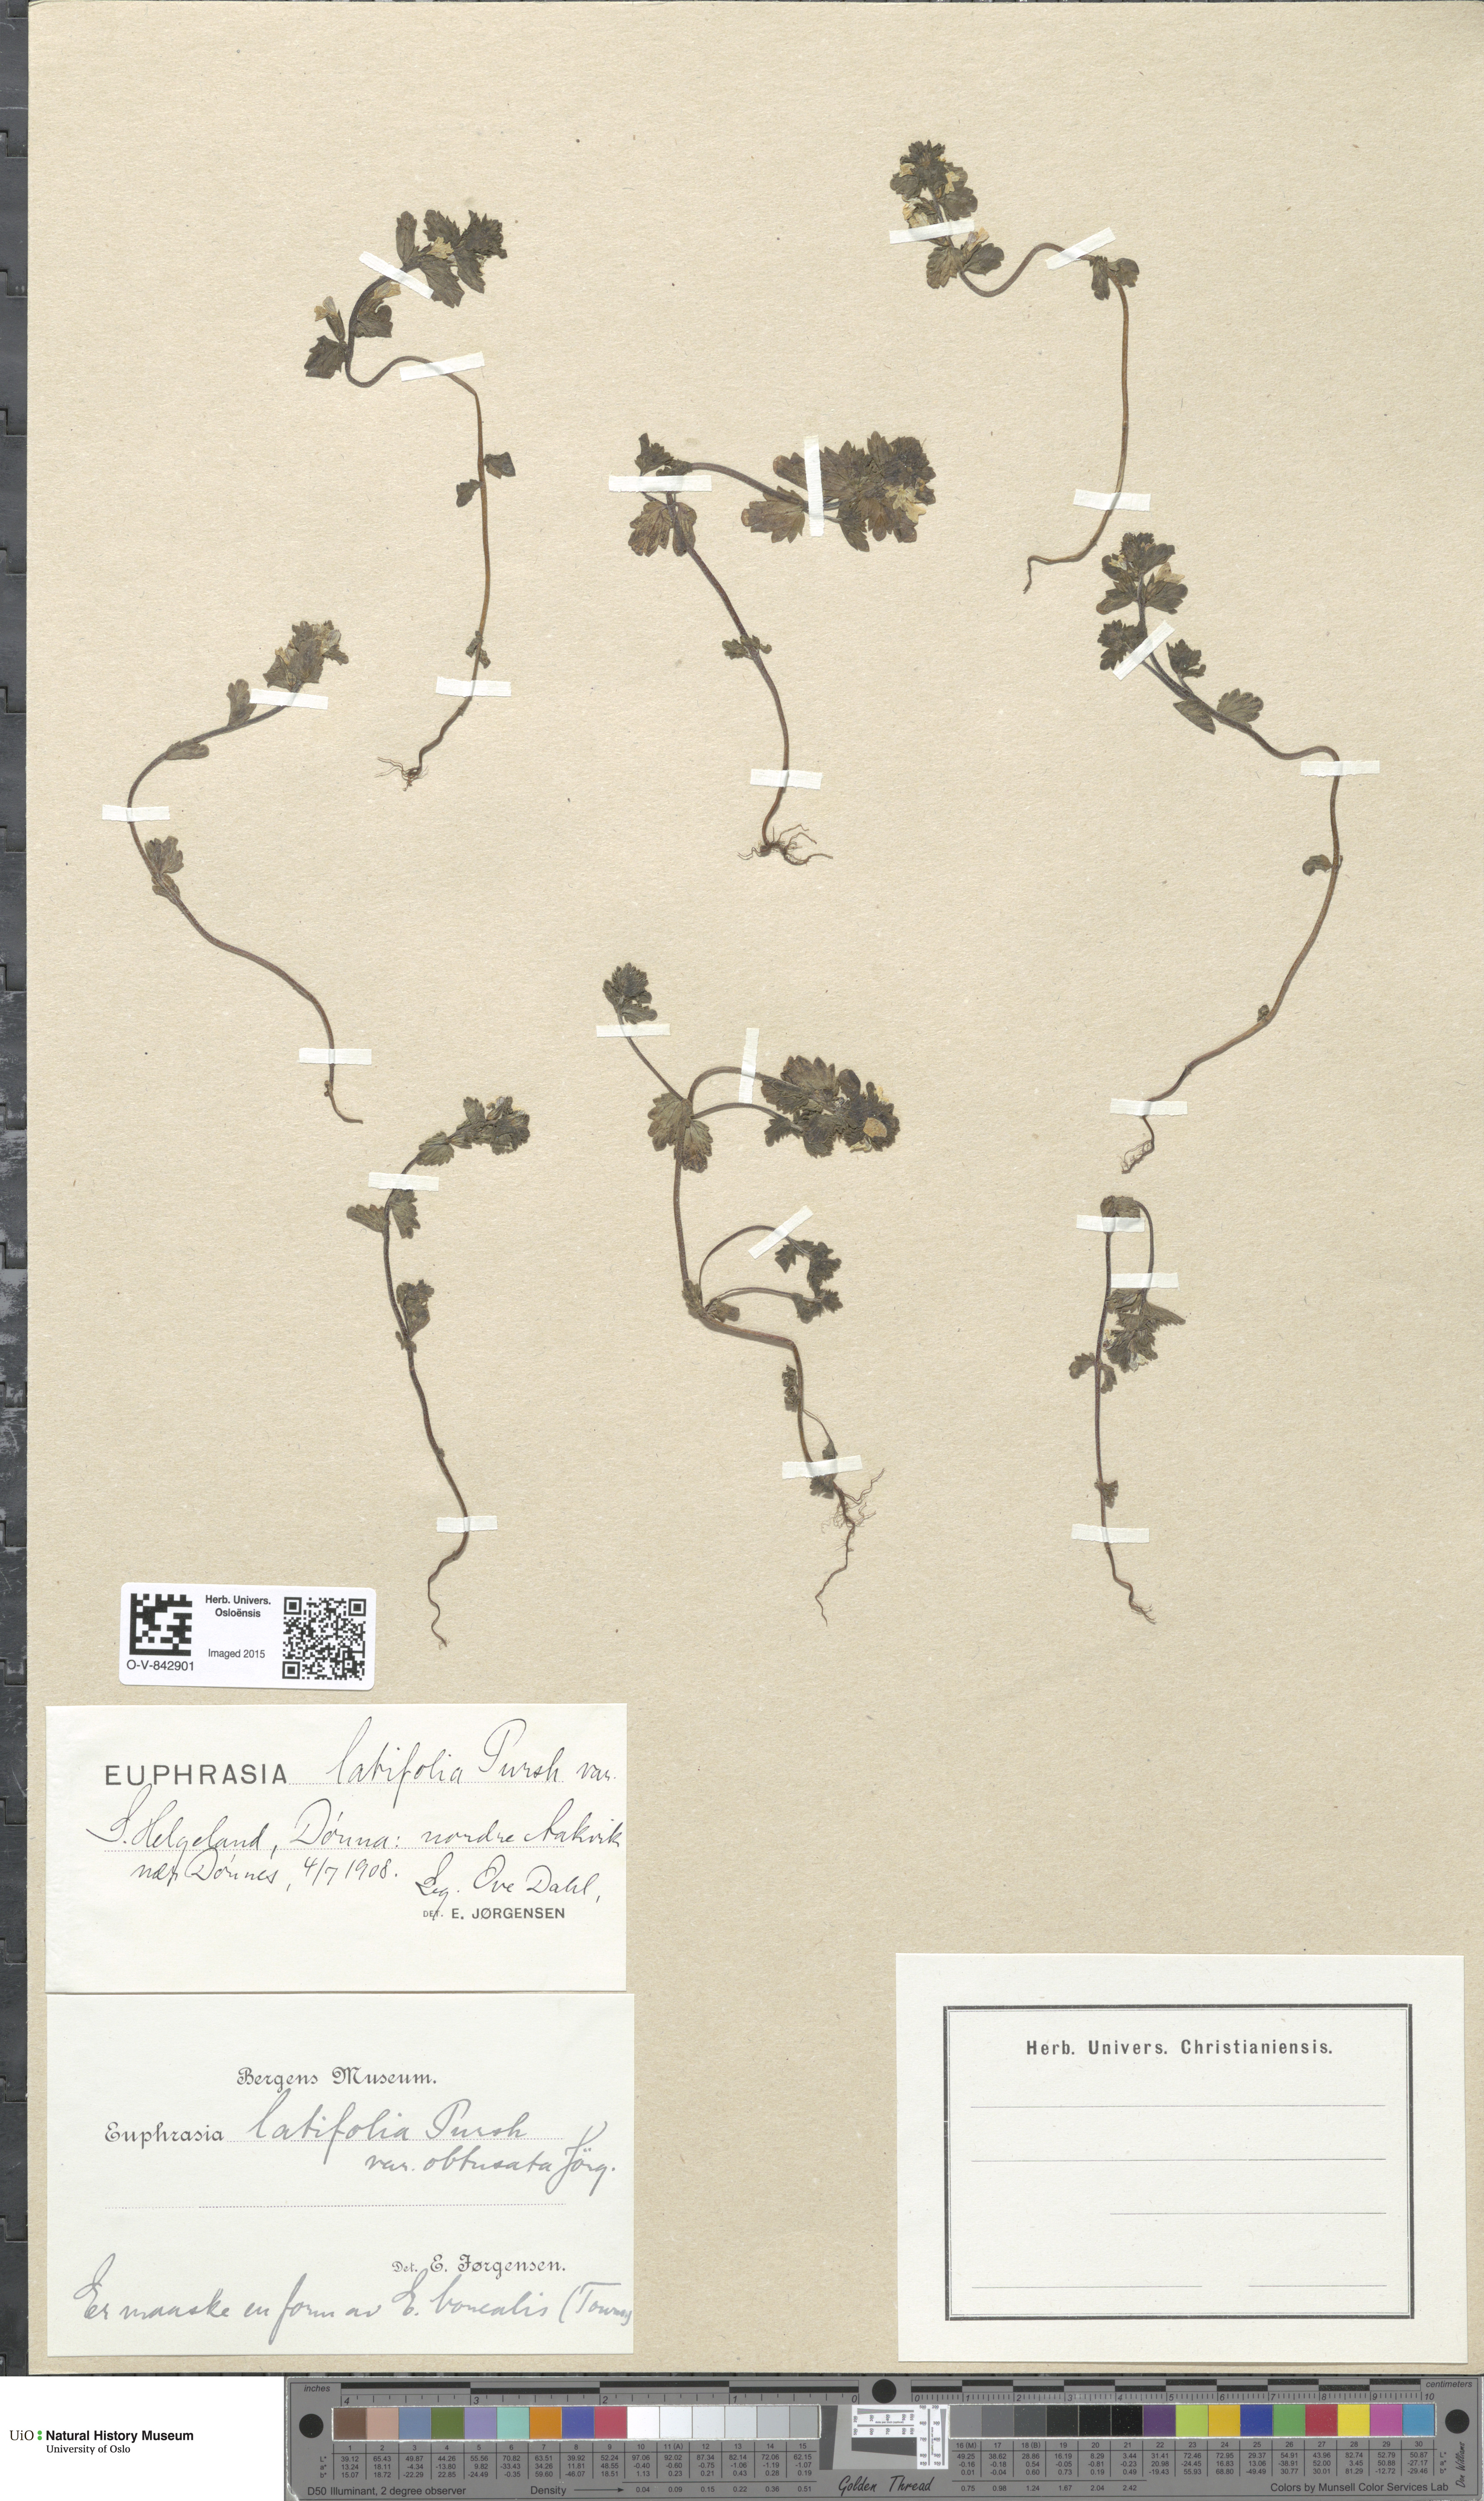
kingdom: Plantae
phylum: Tracheophyta
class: Magnoliopsida
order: Lamiales
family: Orobanchaceae
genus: Euphrasia
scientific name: Euphrasia wettsteinii
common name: Wettstein's eyebright
